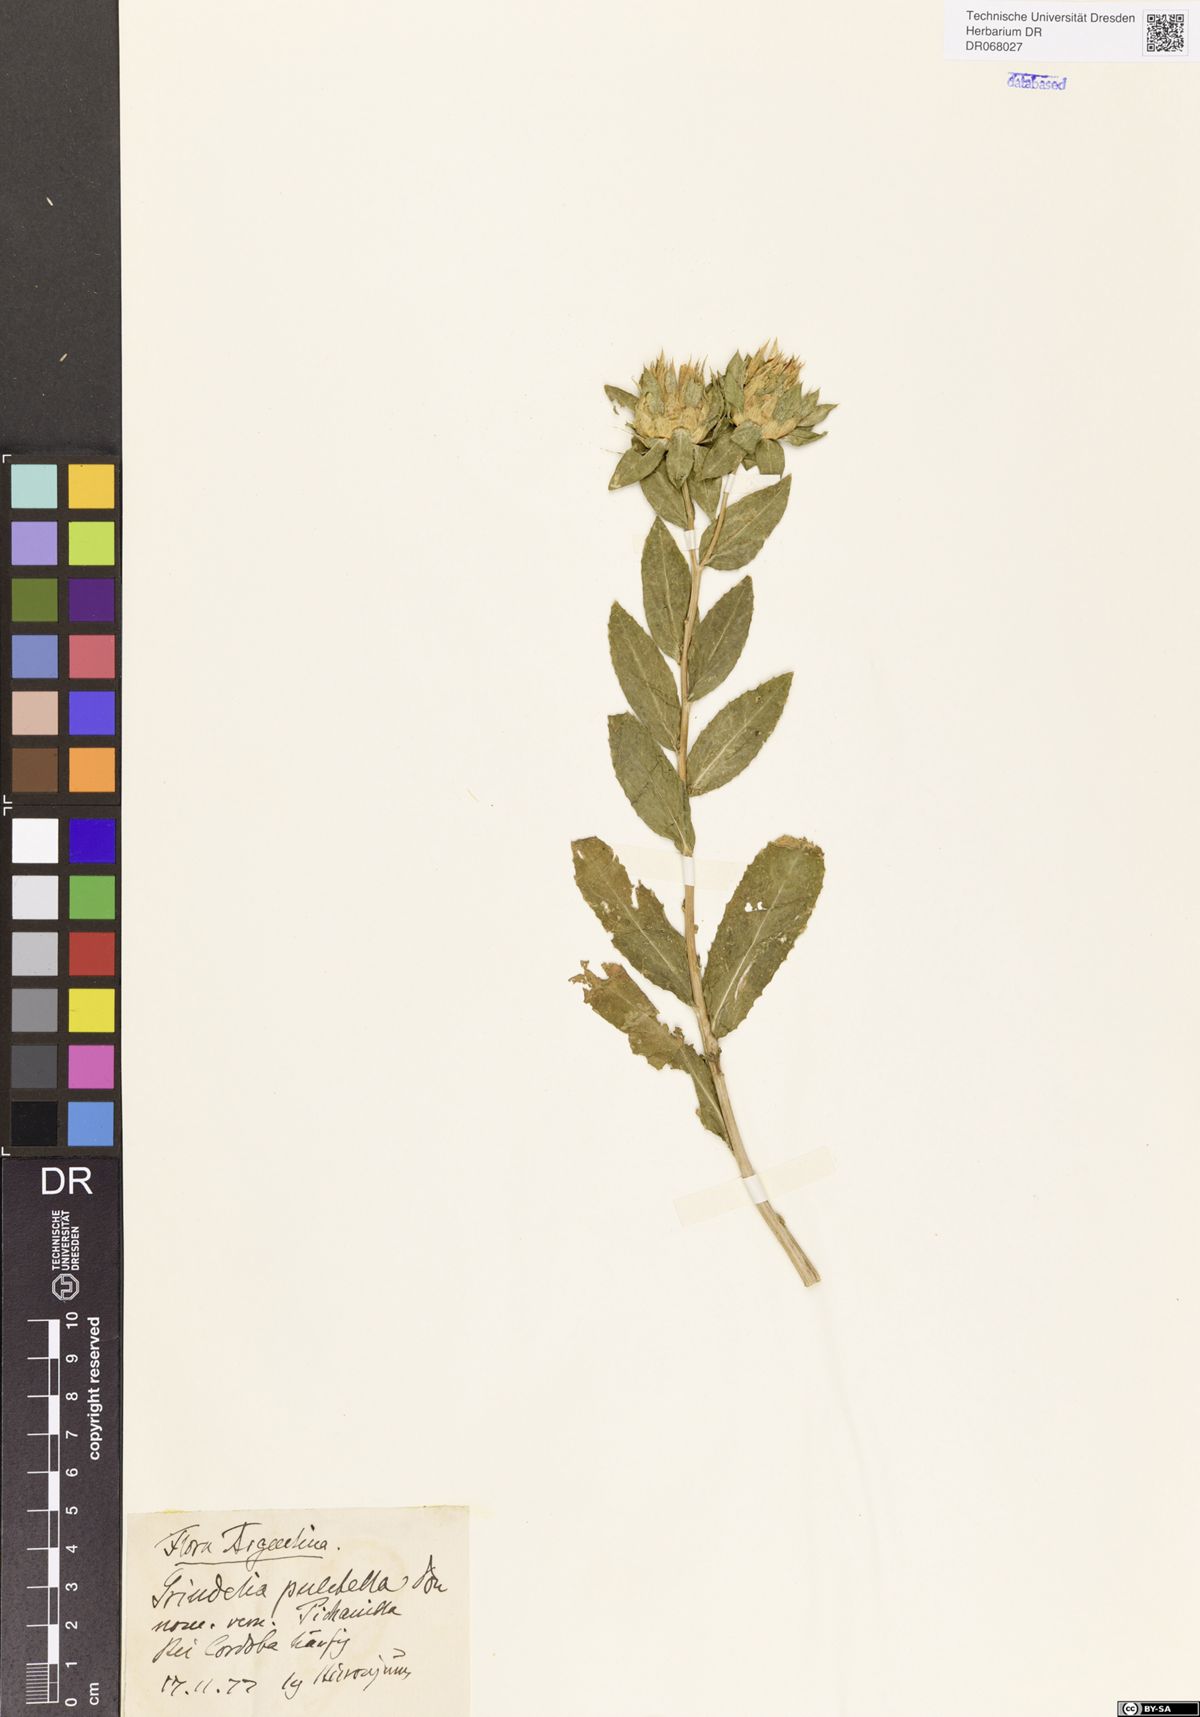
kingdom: Plantae
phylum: Tracheophyta
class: Magnoliopsida
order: Asterales
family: Asteraceae
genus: Grindelia
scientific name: Grindelia pulchella
